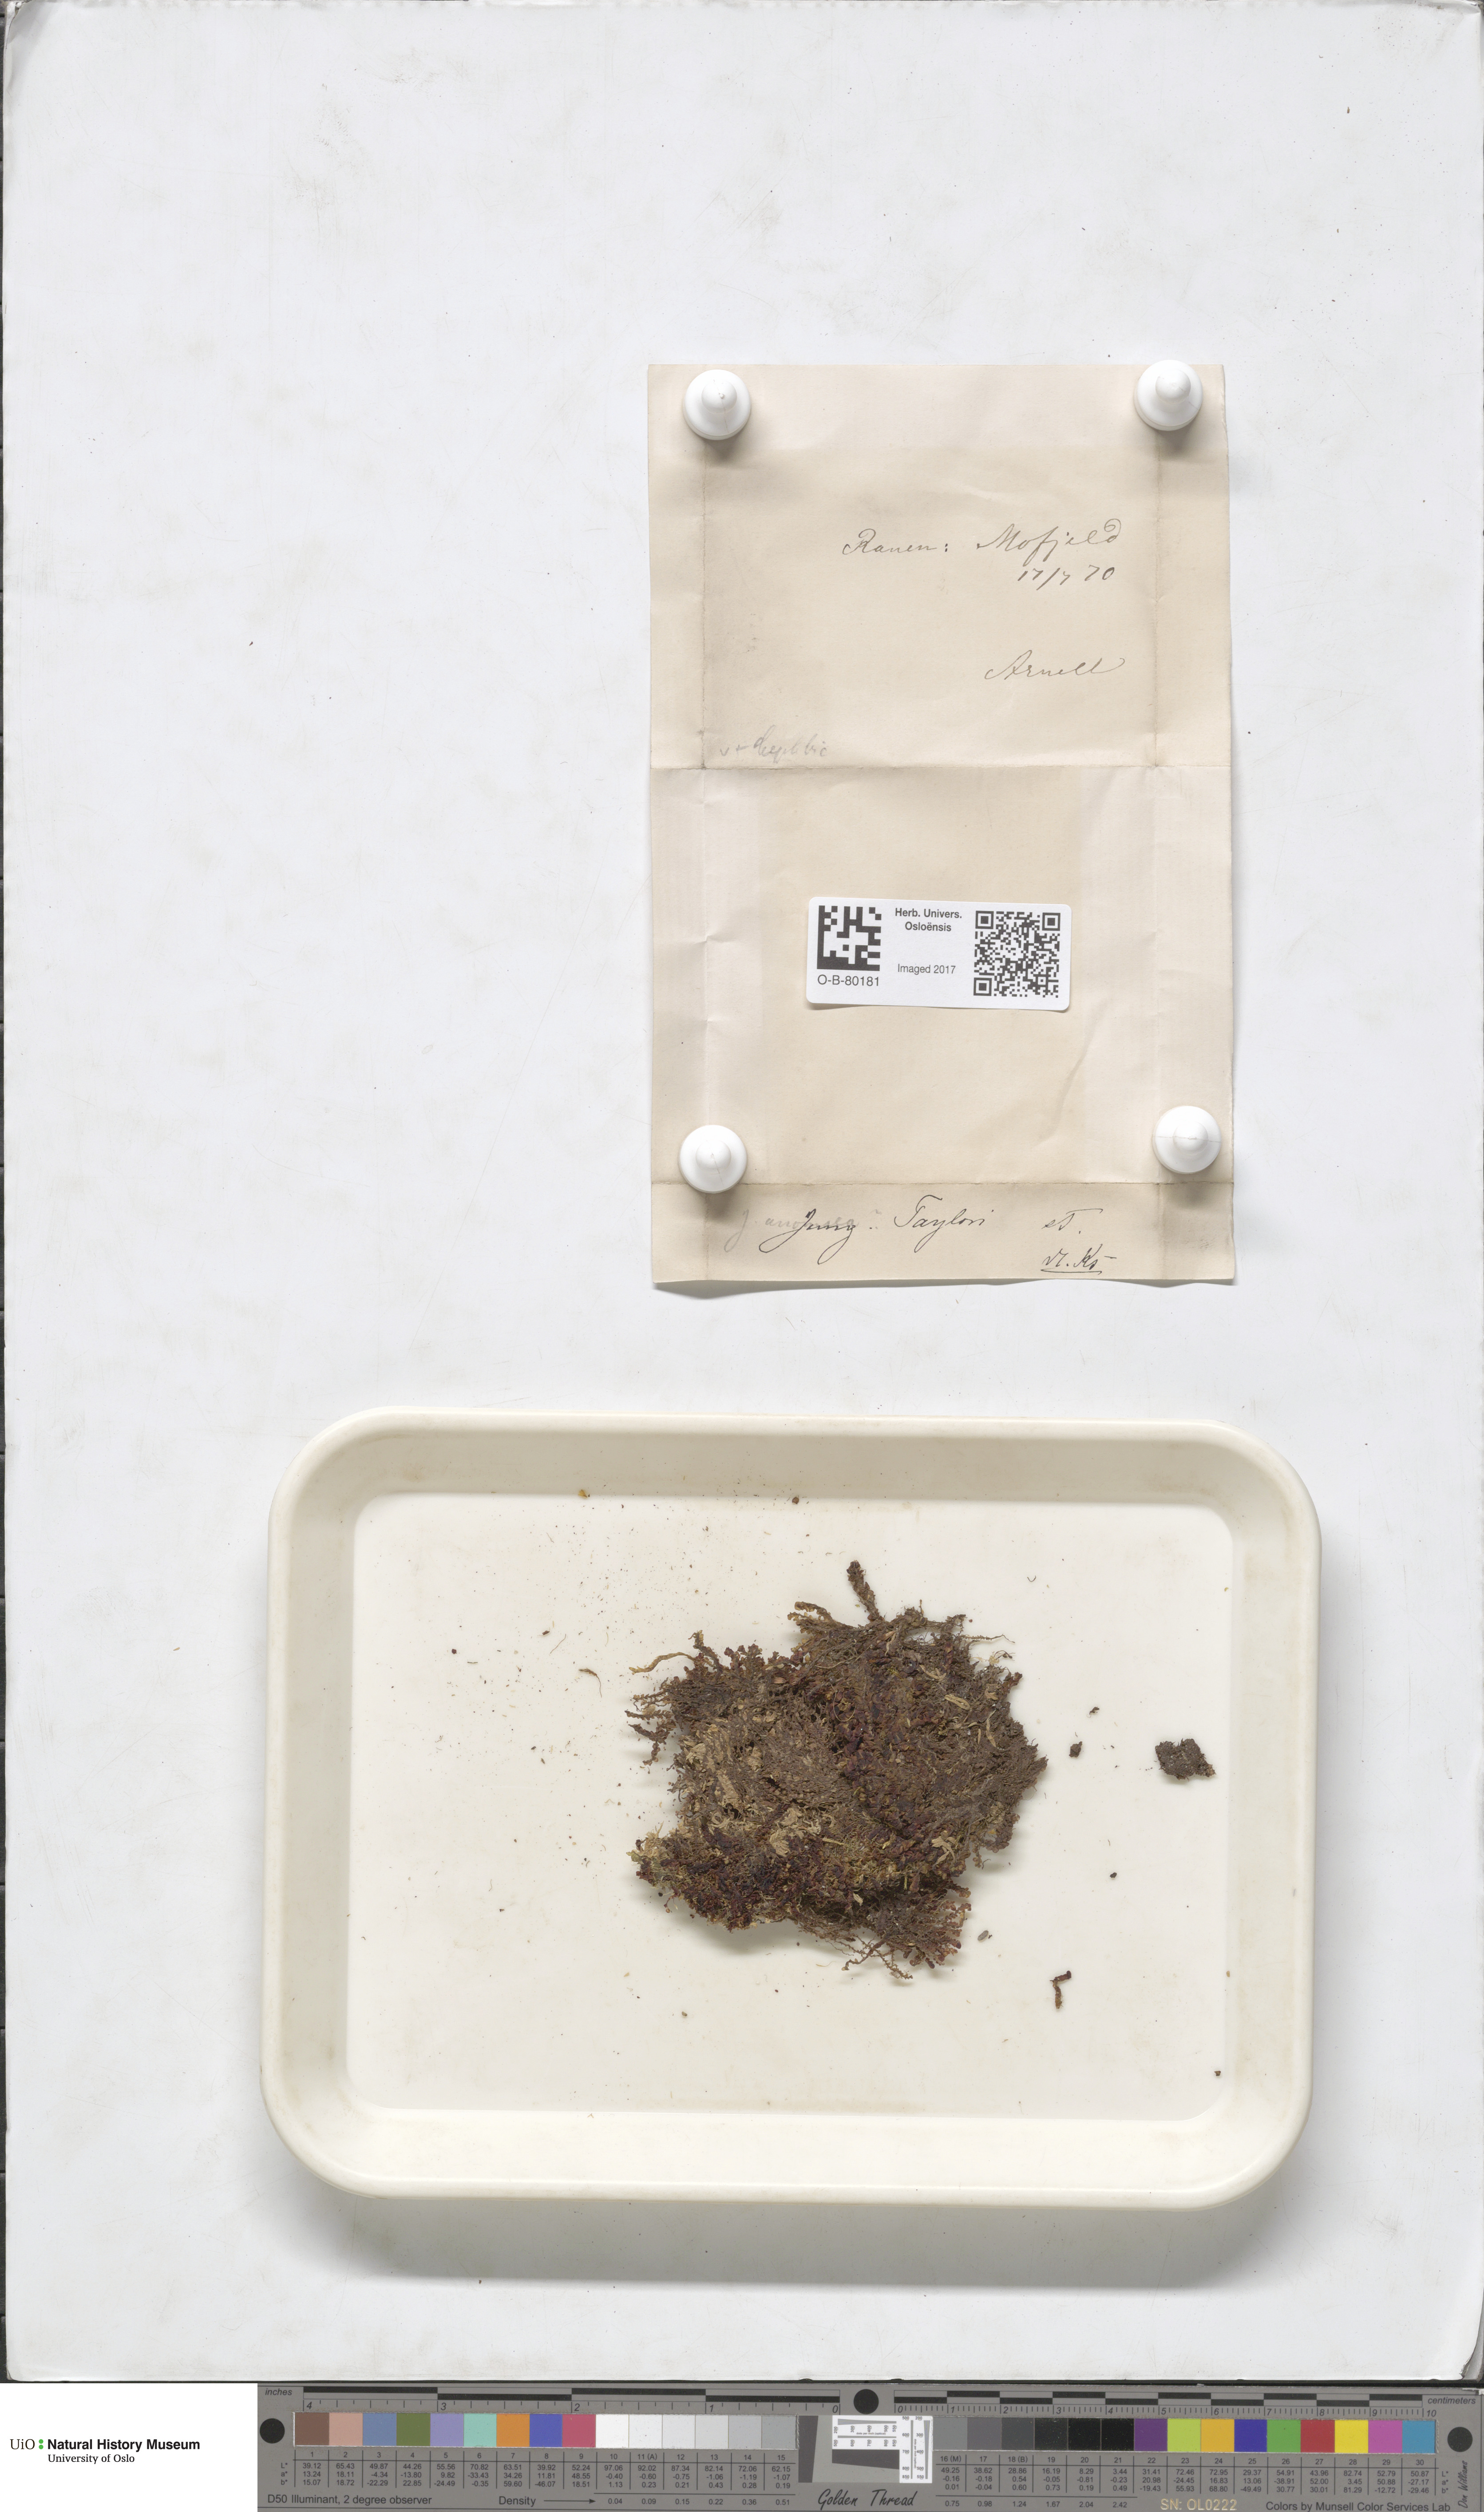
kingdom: Plantae
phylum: Marchantiophyta
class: Jungermanniopsida
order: Jungermanniales
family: Myliaceae
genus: Mylia
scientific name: Mylia taylorii
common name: Taylor s flapwort
